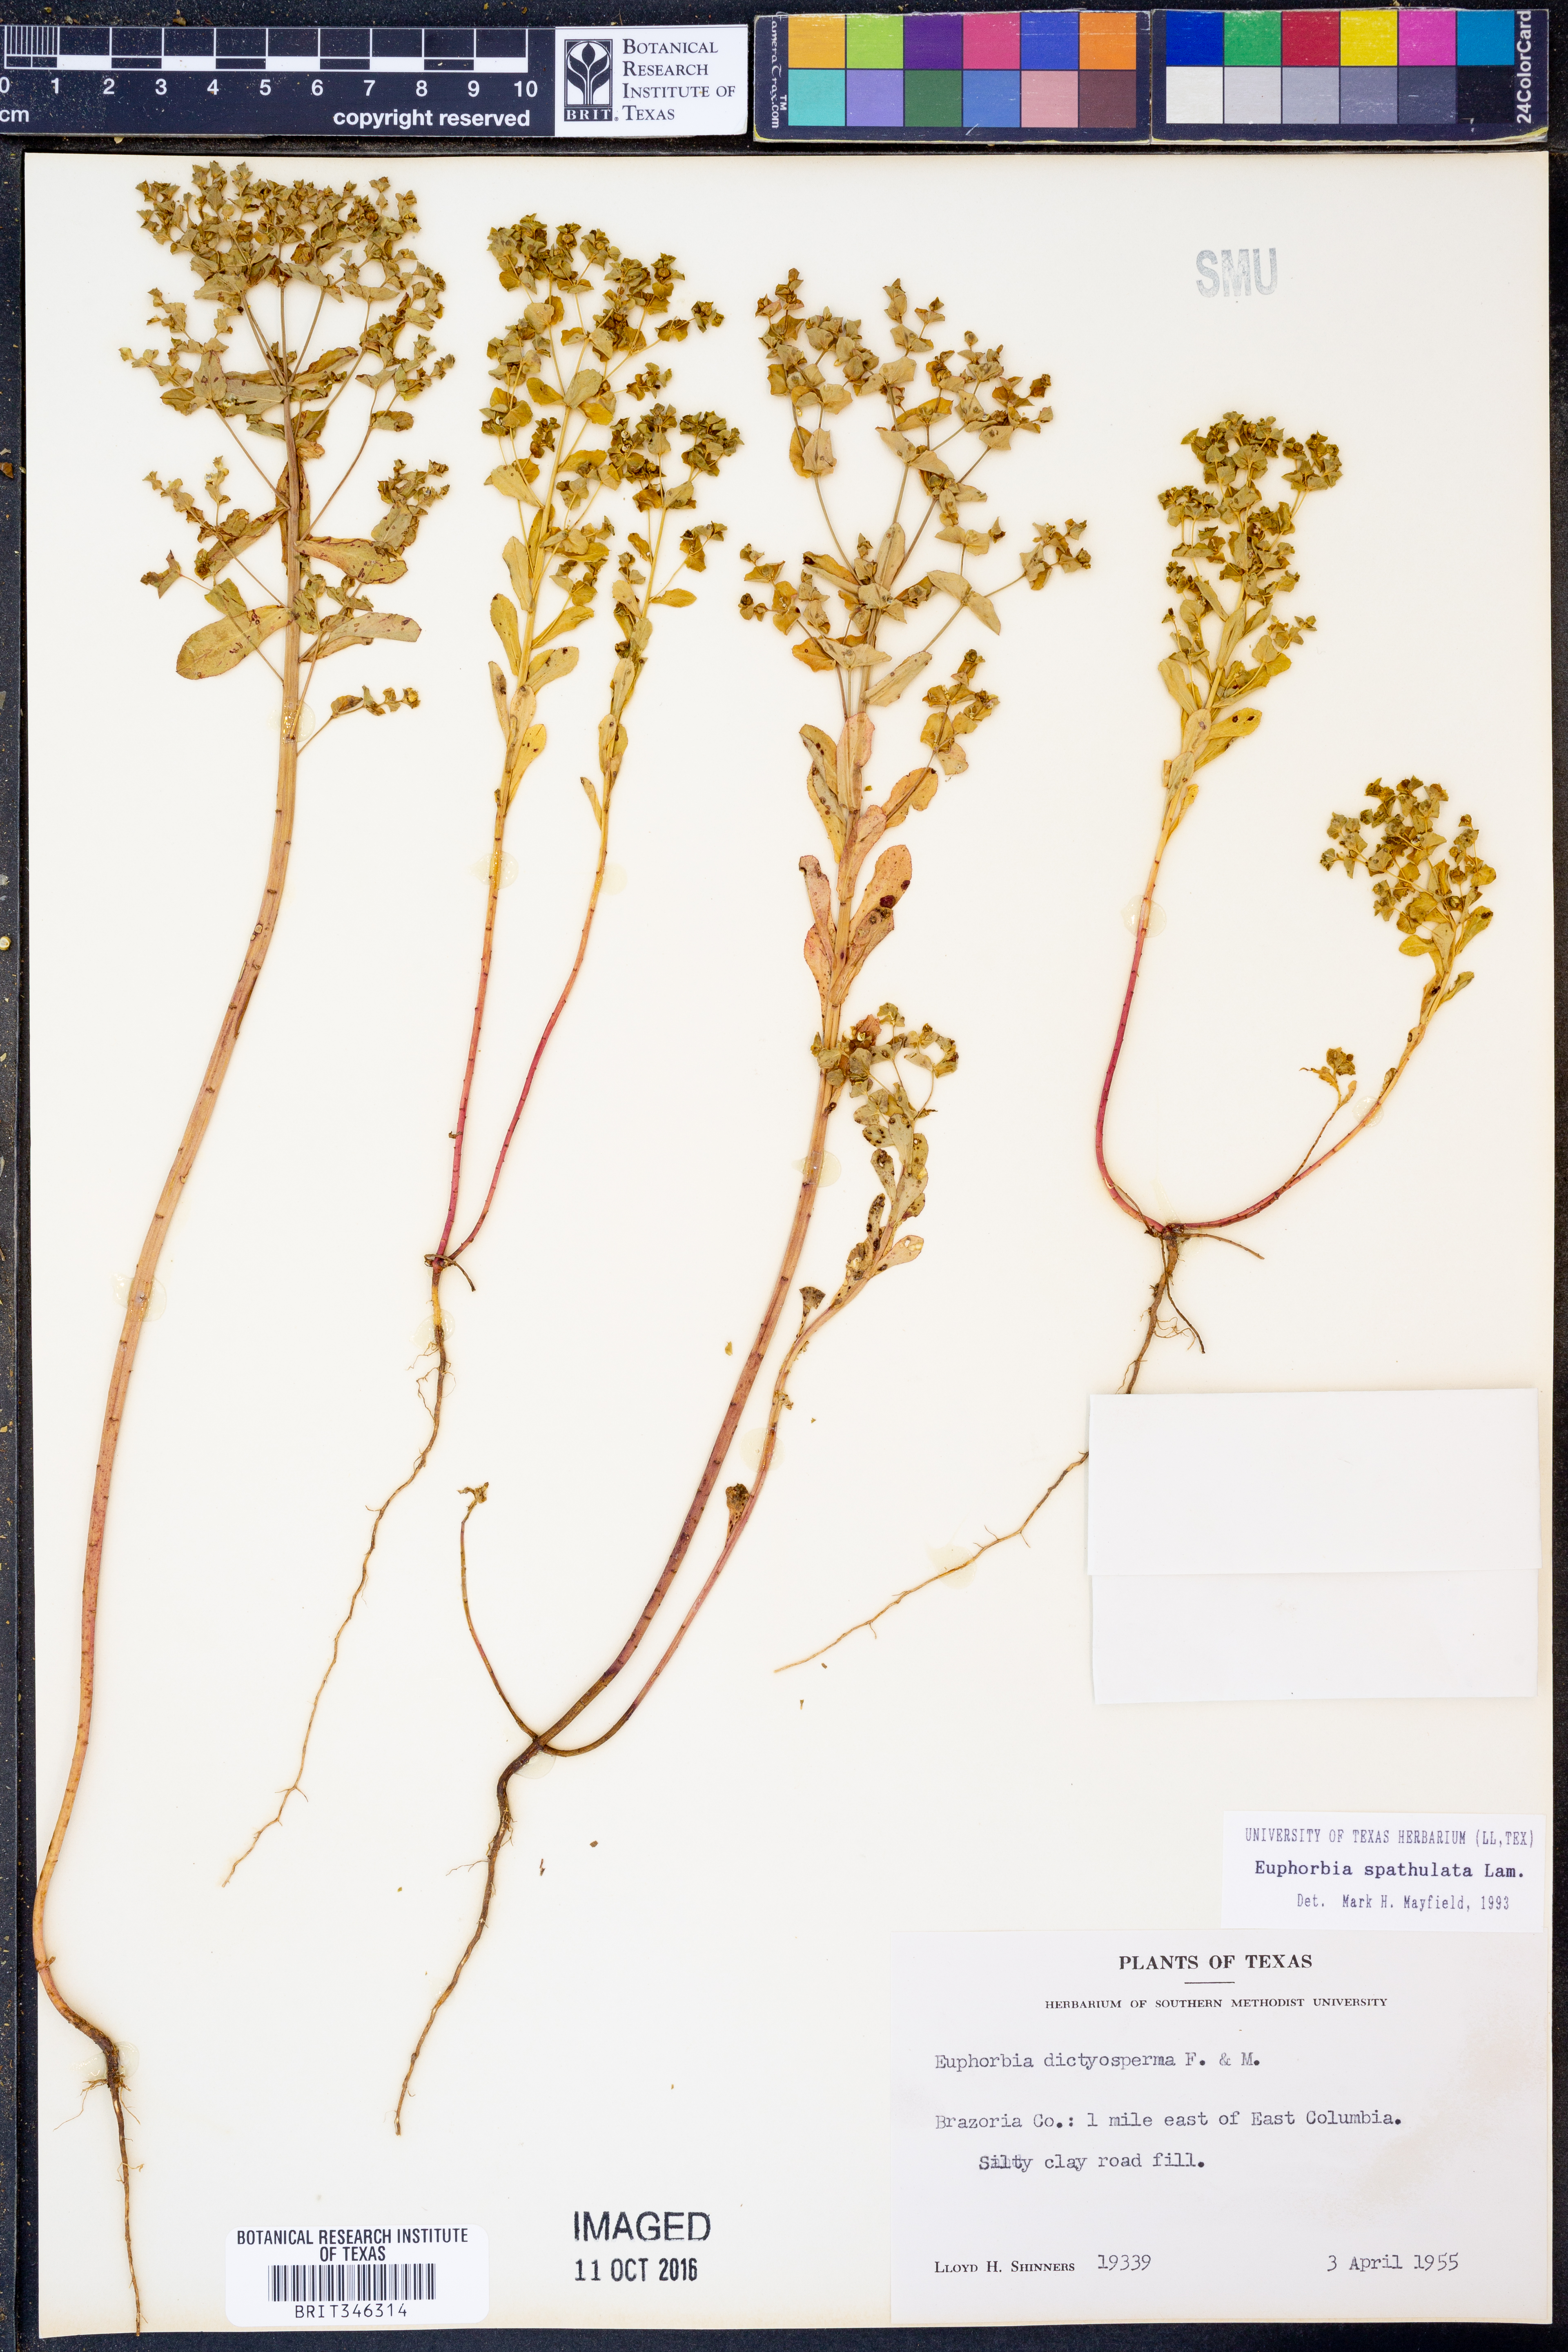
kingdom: Plantae
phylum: Tracheophyta
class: Magnoliopsida
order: Malpighiales
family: Euphorbiaceae
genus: Euphorbia
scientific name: Euphorbia spathulata
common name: Blunt spurge
